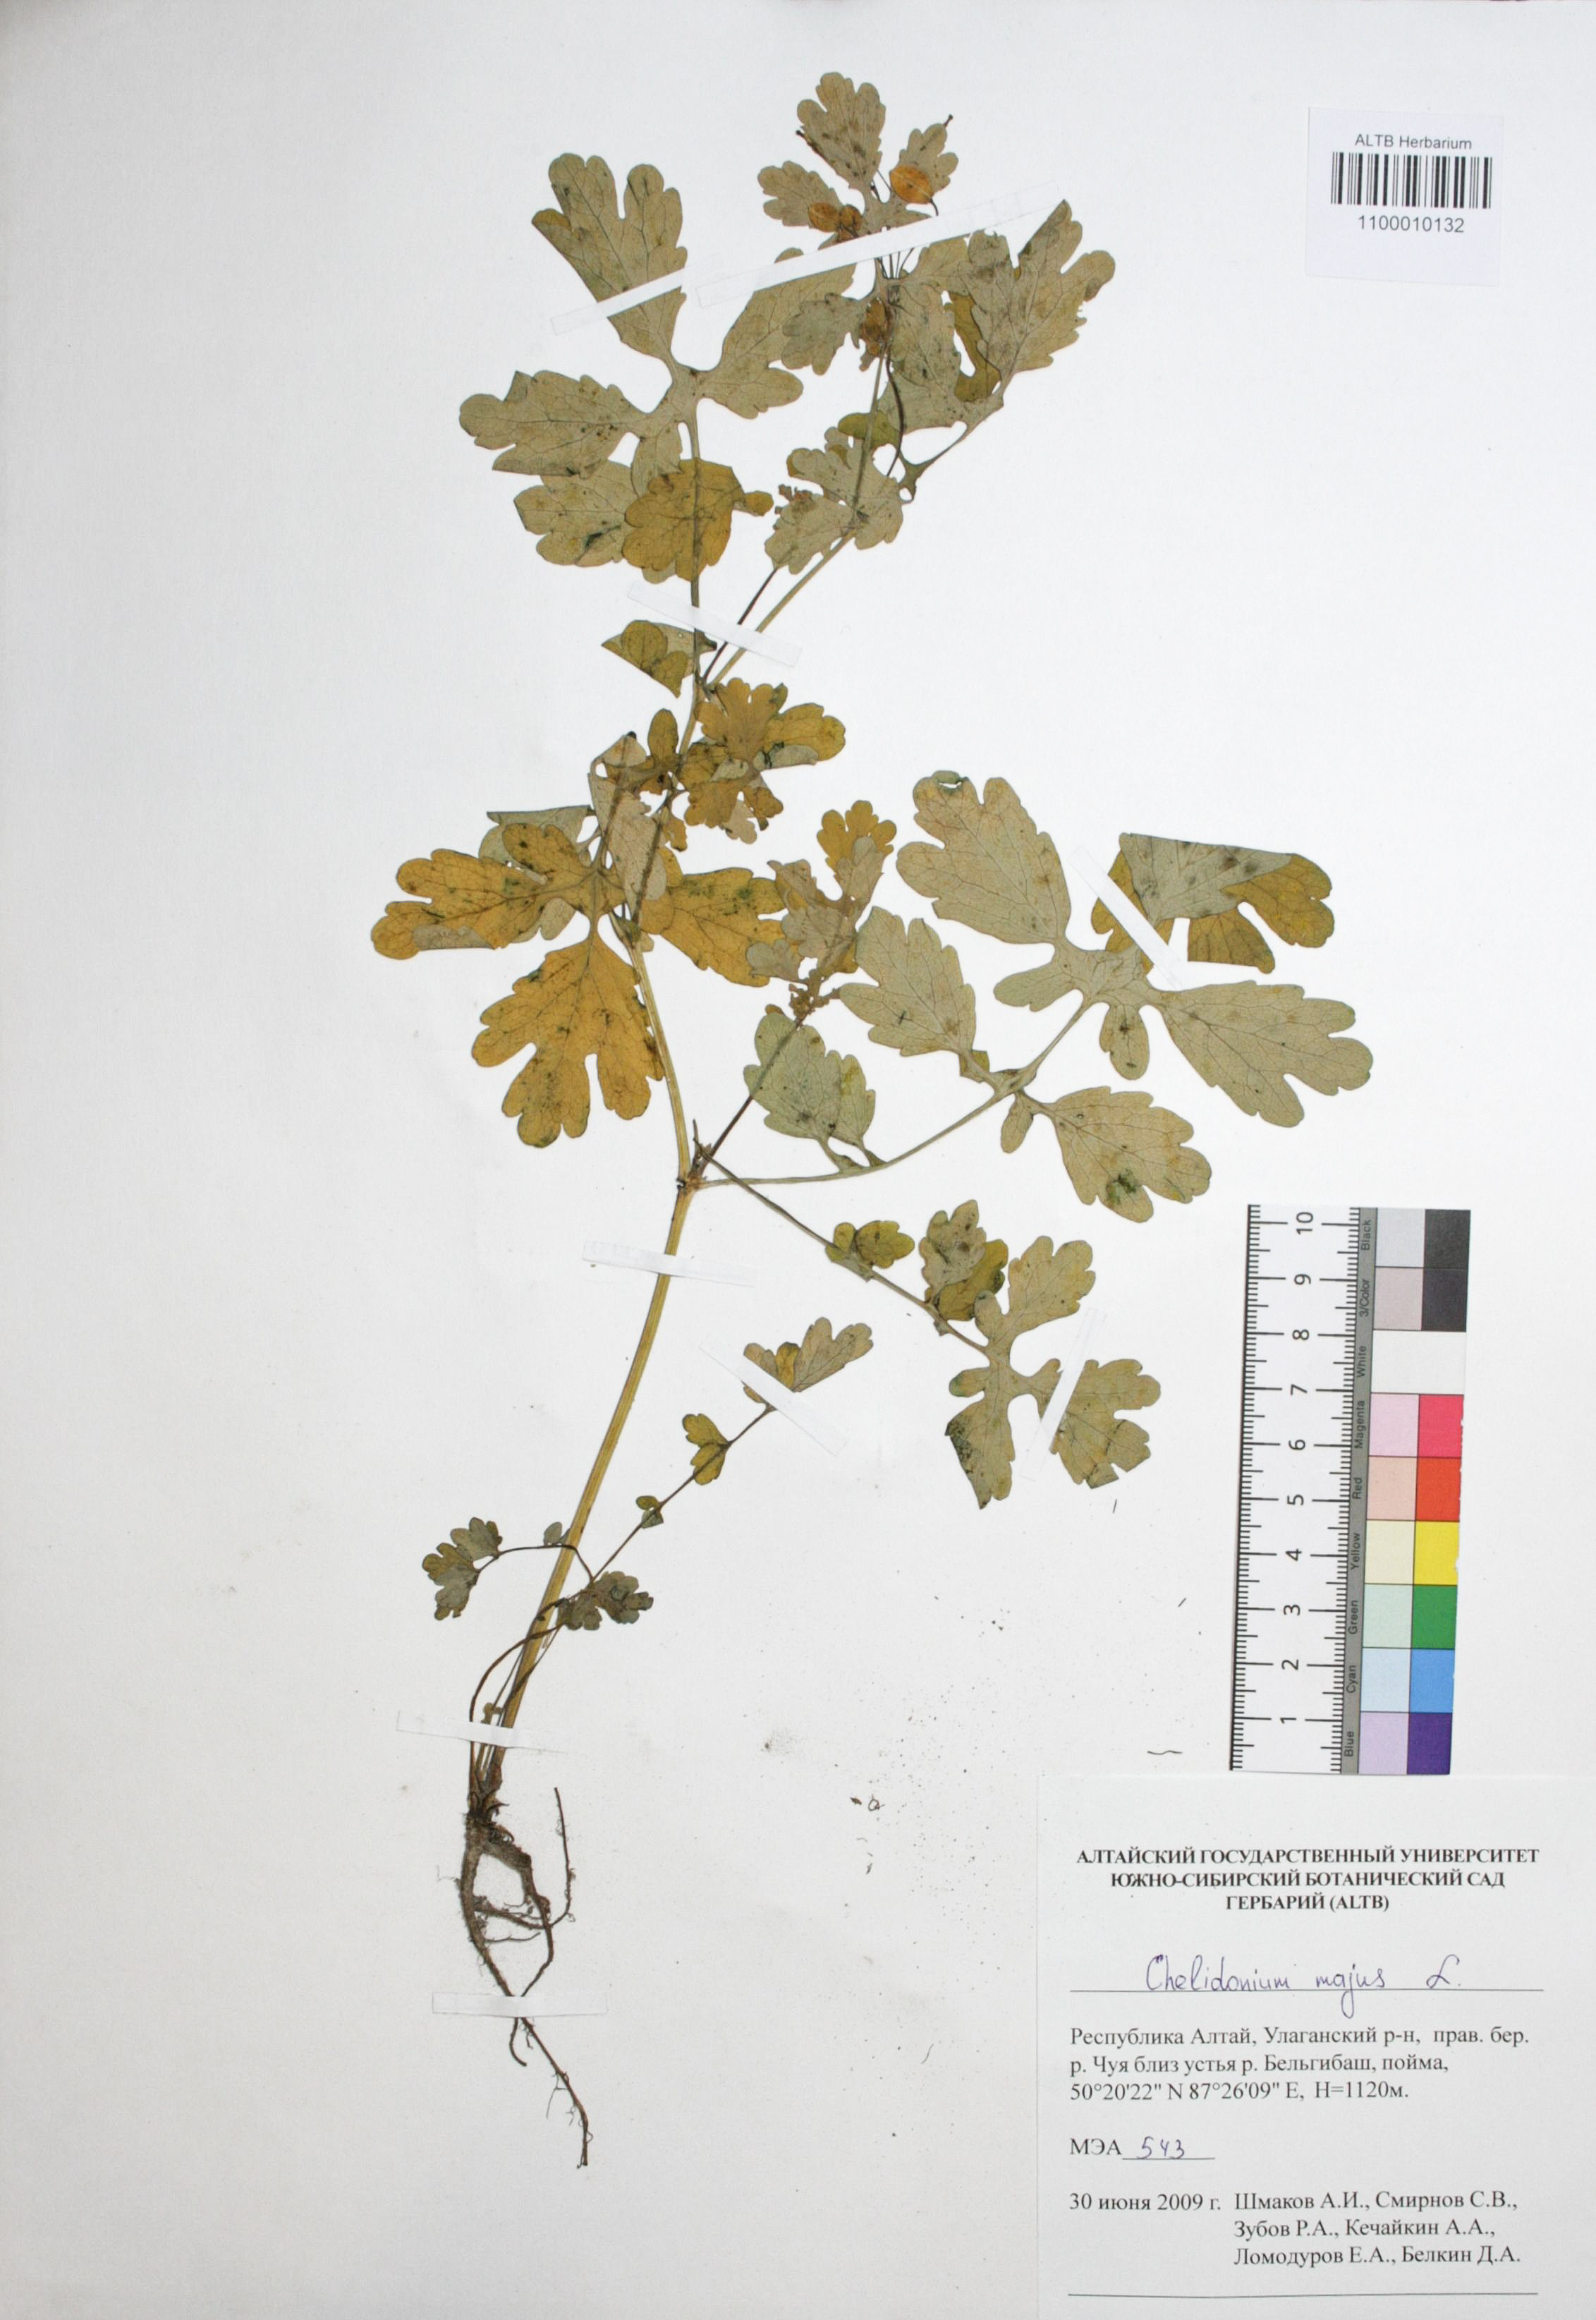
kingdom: Plantae
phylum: Tracheophyta
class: Magnoliopsida
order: Ranunculales
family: Papaveraceae
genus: Chelidonium
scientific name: Chelidonium majus
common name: Greater celandine
